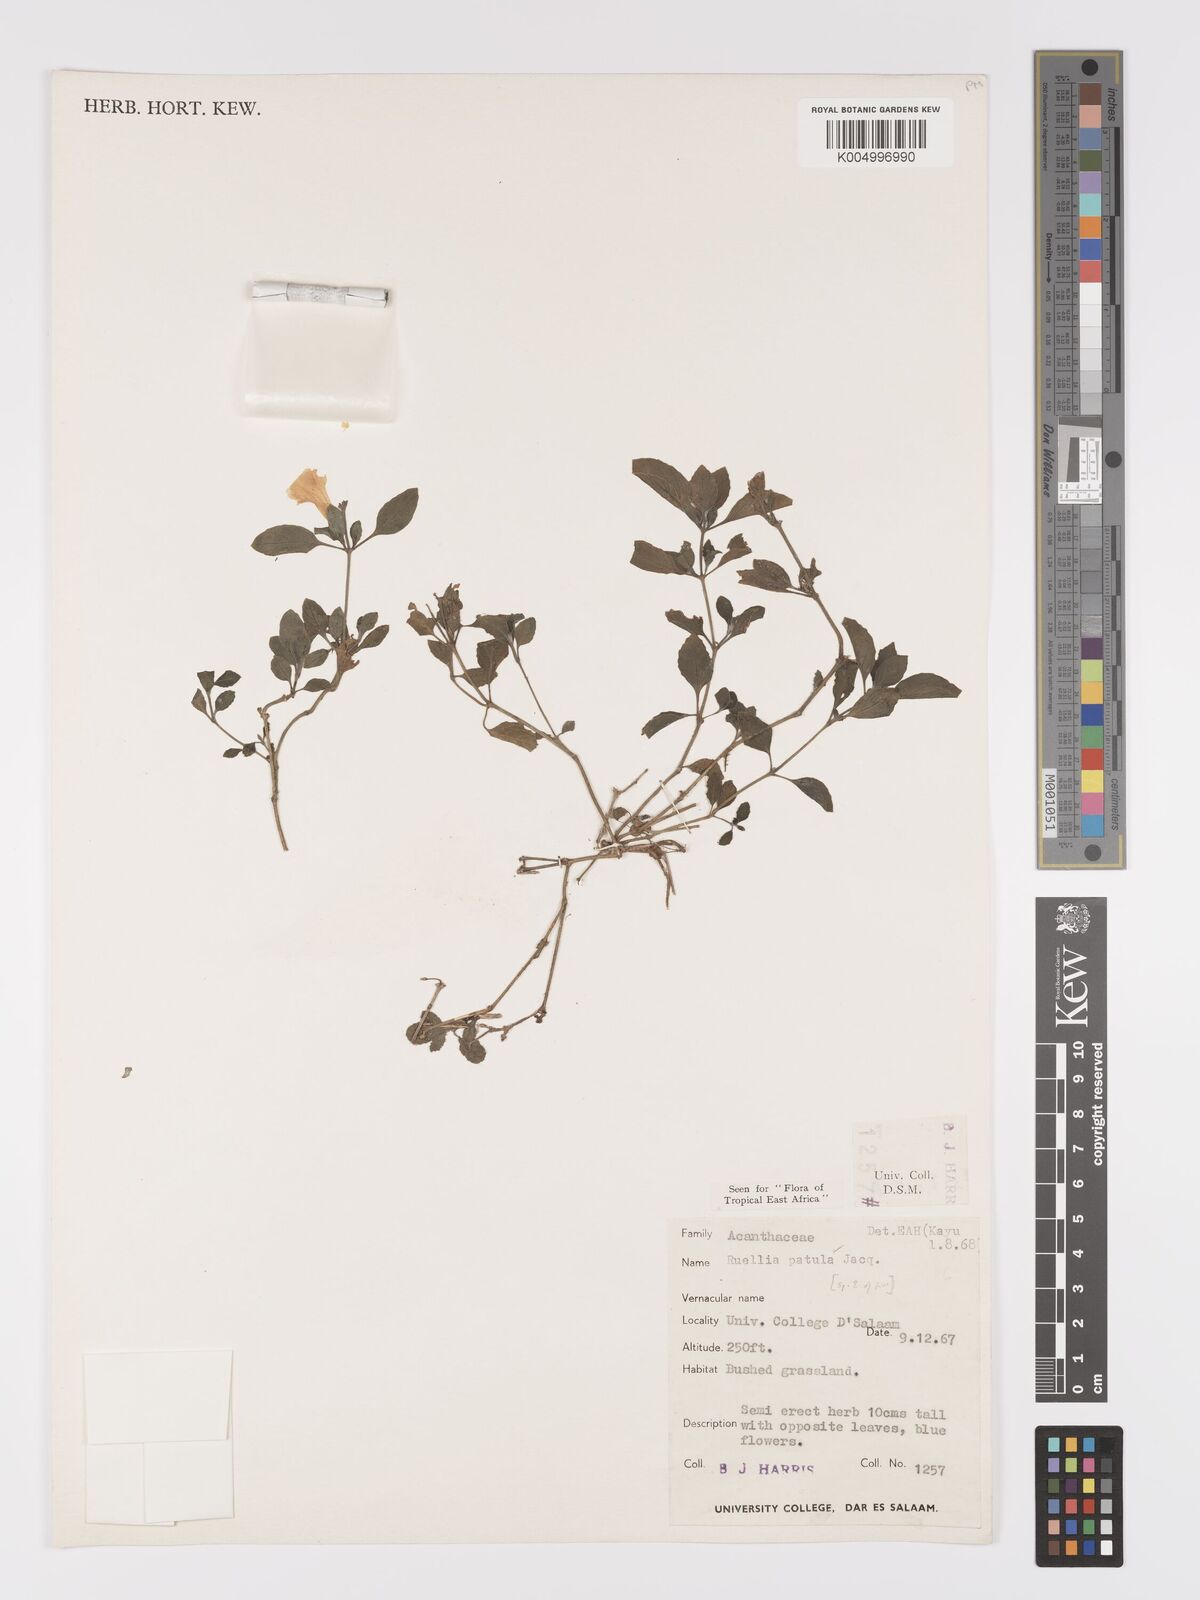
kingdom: Plantae
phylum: Tracheophyta
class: Magnoliopsida
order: Lamiales
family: Acanthaceae
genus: Ruellia
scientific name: Ruellia patula
